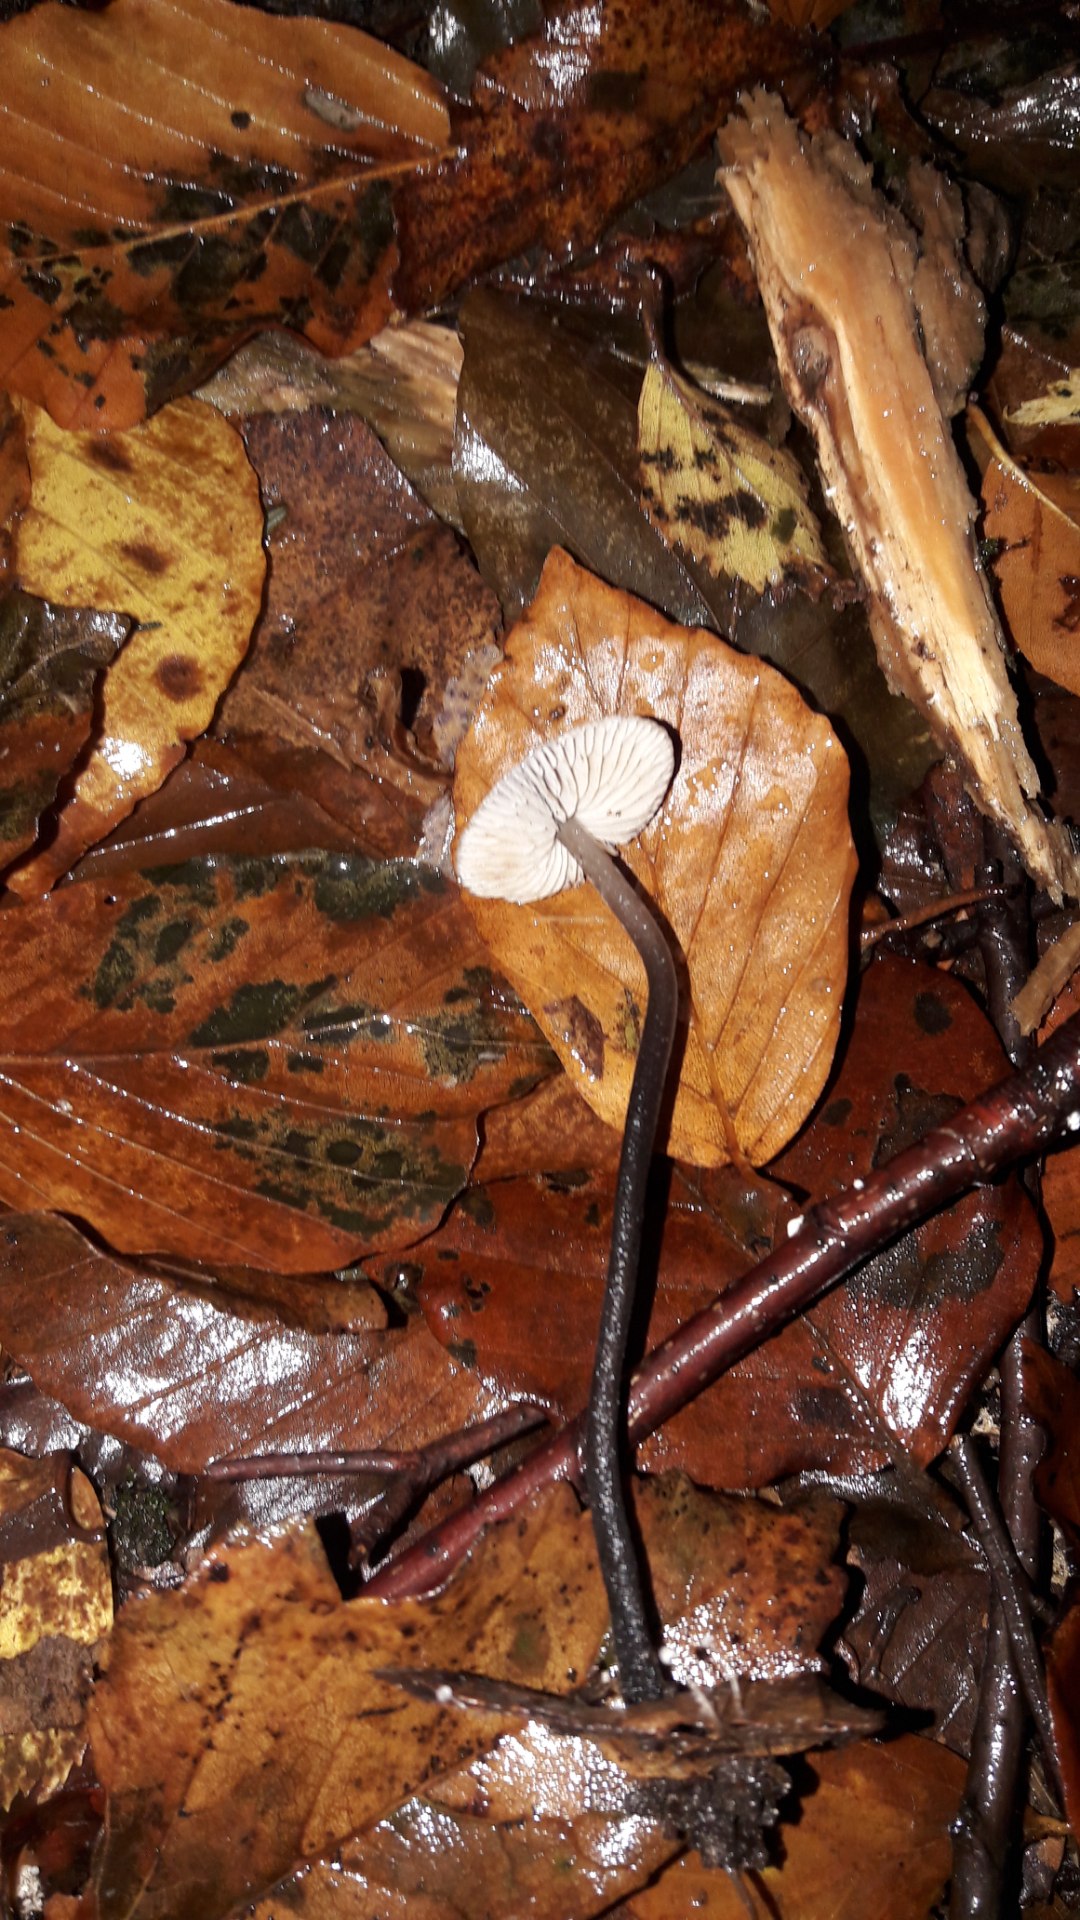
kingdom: Fungi
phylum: Basidiomycota
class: Agaricomycetes
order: Agaricales
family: Omphalotaceae
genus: Mycetinis
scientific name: Mycetinis alliaceus
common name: stor løghat
